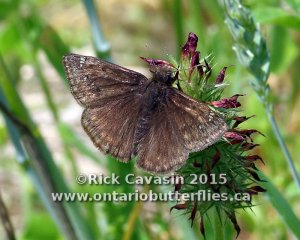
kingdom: Animalia
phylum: Arthropoda
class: Insecta
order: Lepidoptera
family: Hesperiidae
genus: Gesta
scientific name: Gesta
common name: Horace's Duskywing
